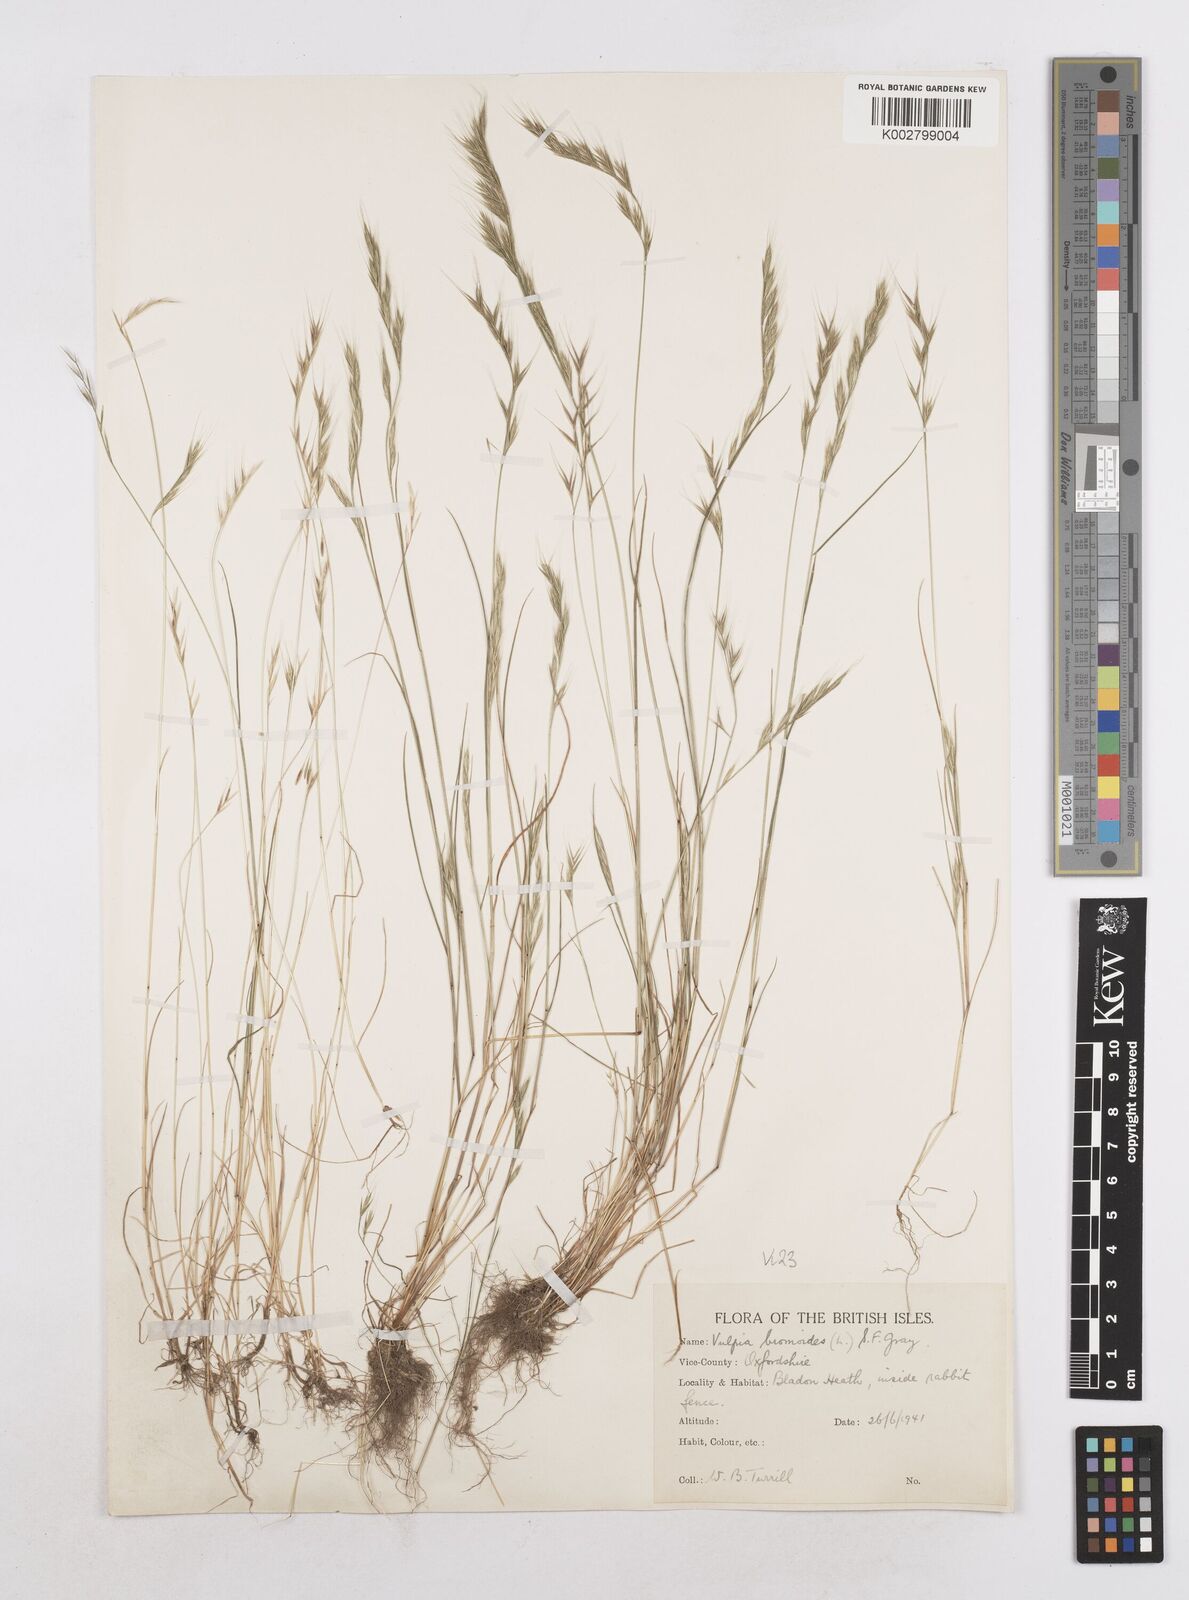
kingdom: Plantae
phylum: Tracheophyta
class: Liliopsida
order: Poales
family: Poaceae
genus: Festuca
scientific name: Festuca bromoides
